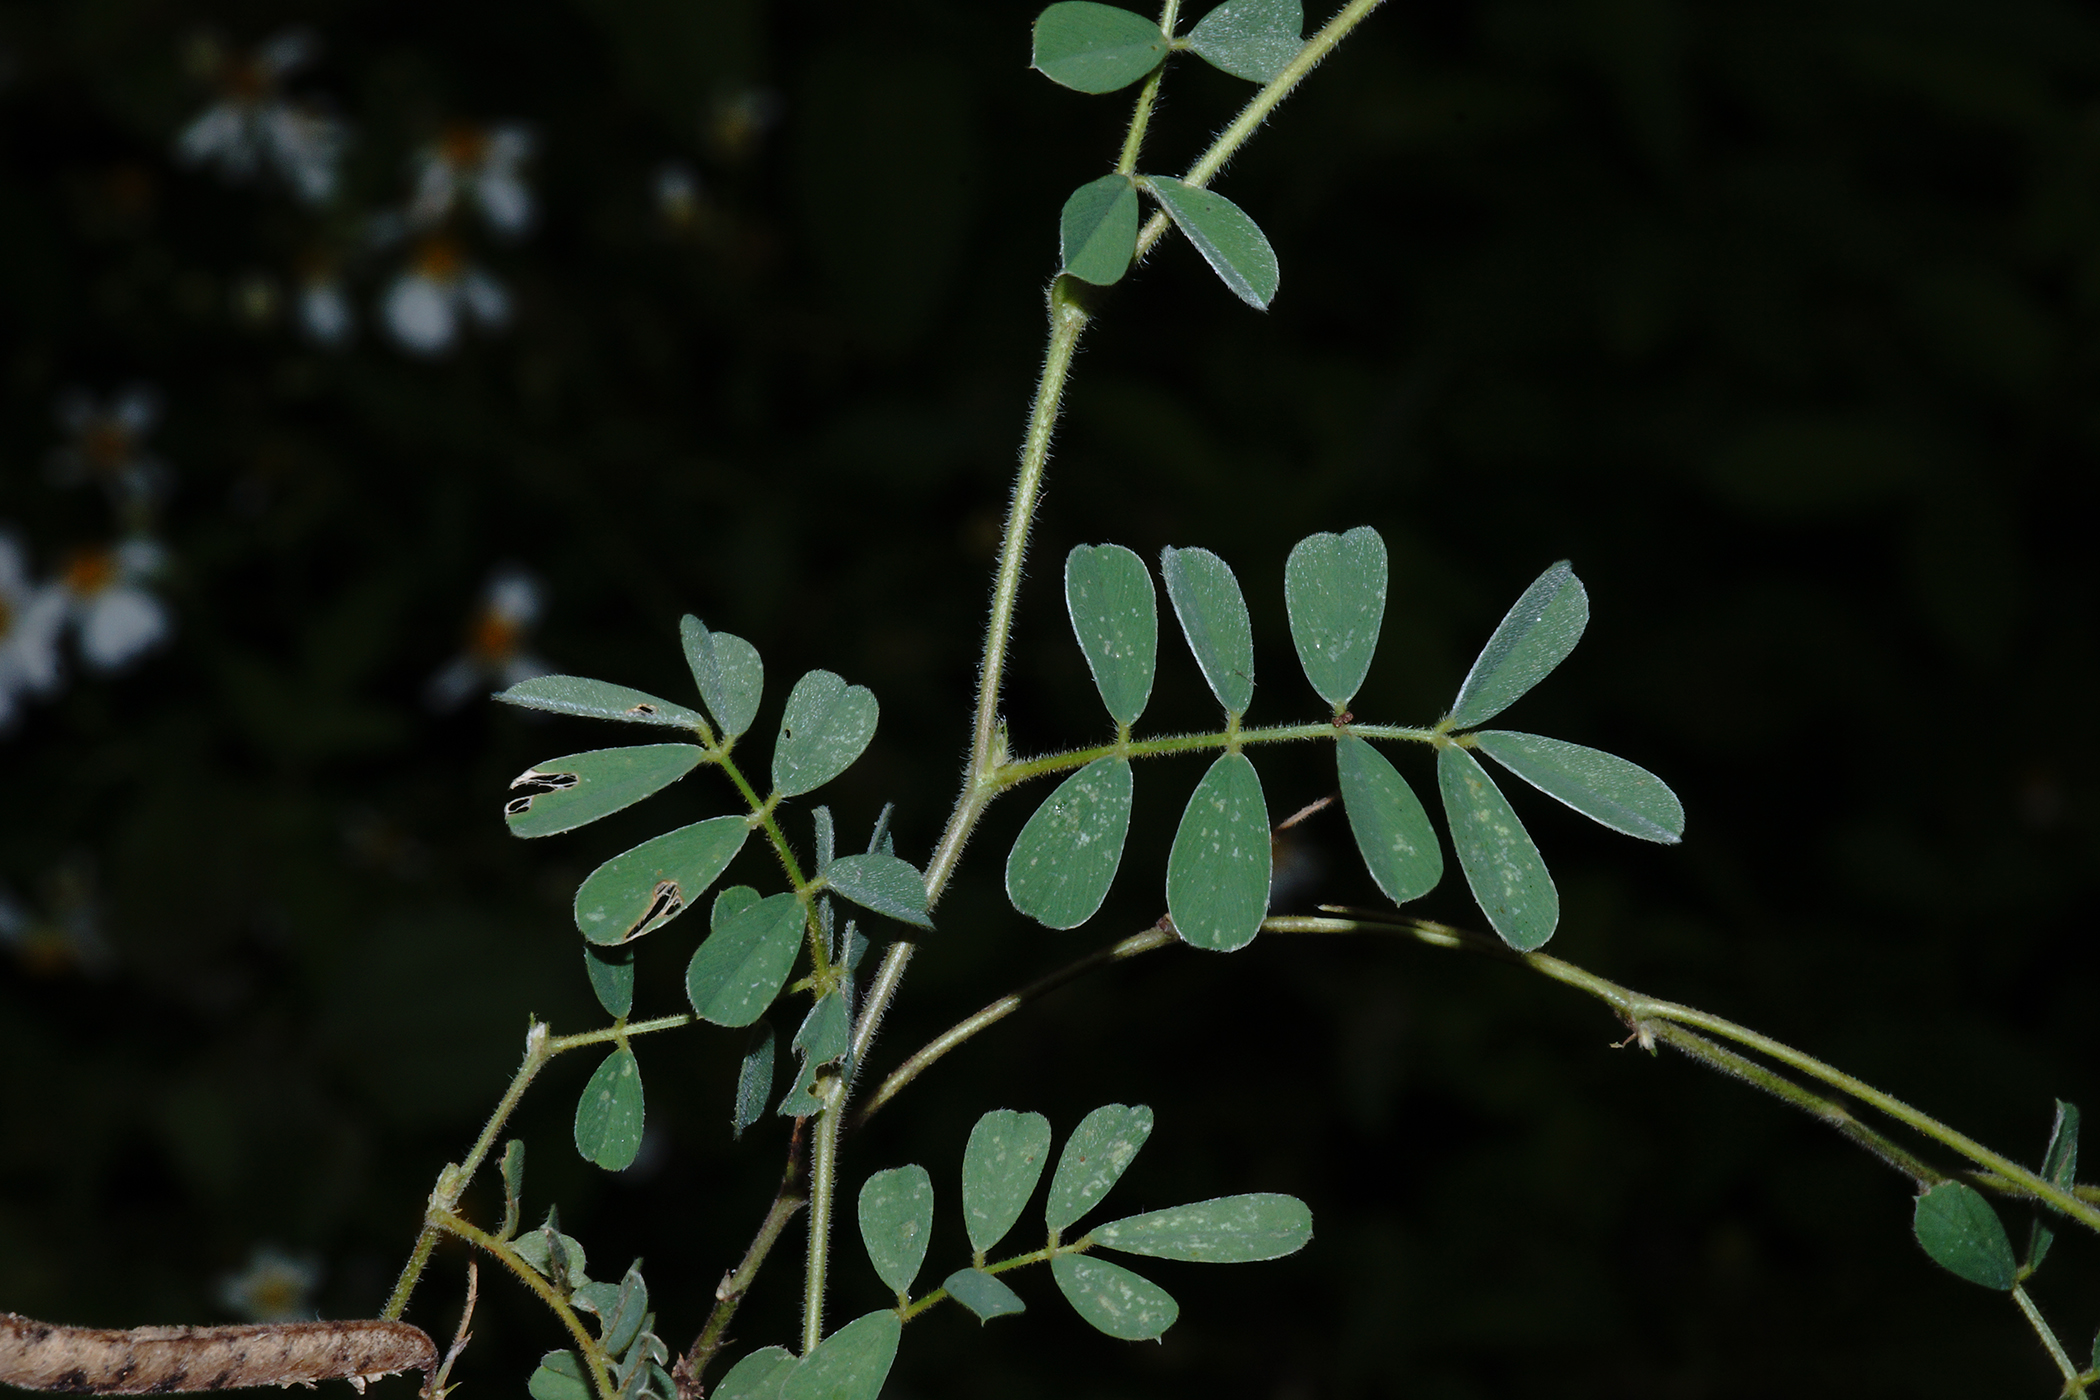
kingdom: Plantae
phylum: Tracheophyta
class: Magnoliopsida
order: Fabales
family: Fabaceae
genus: Tephrosia
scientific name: Tephrosia purpurea
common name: Fishpoison
